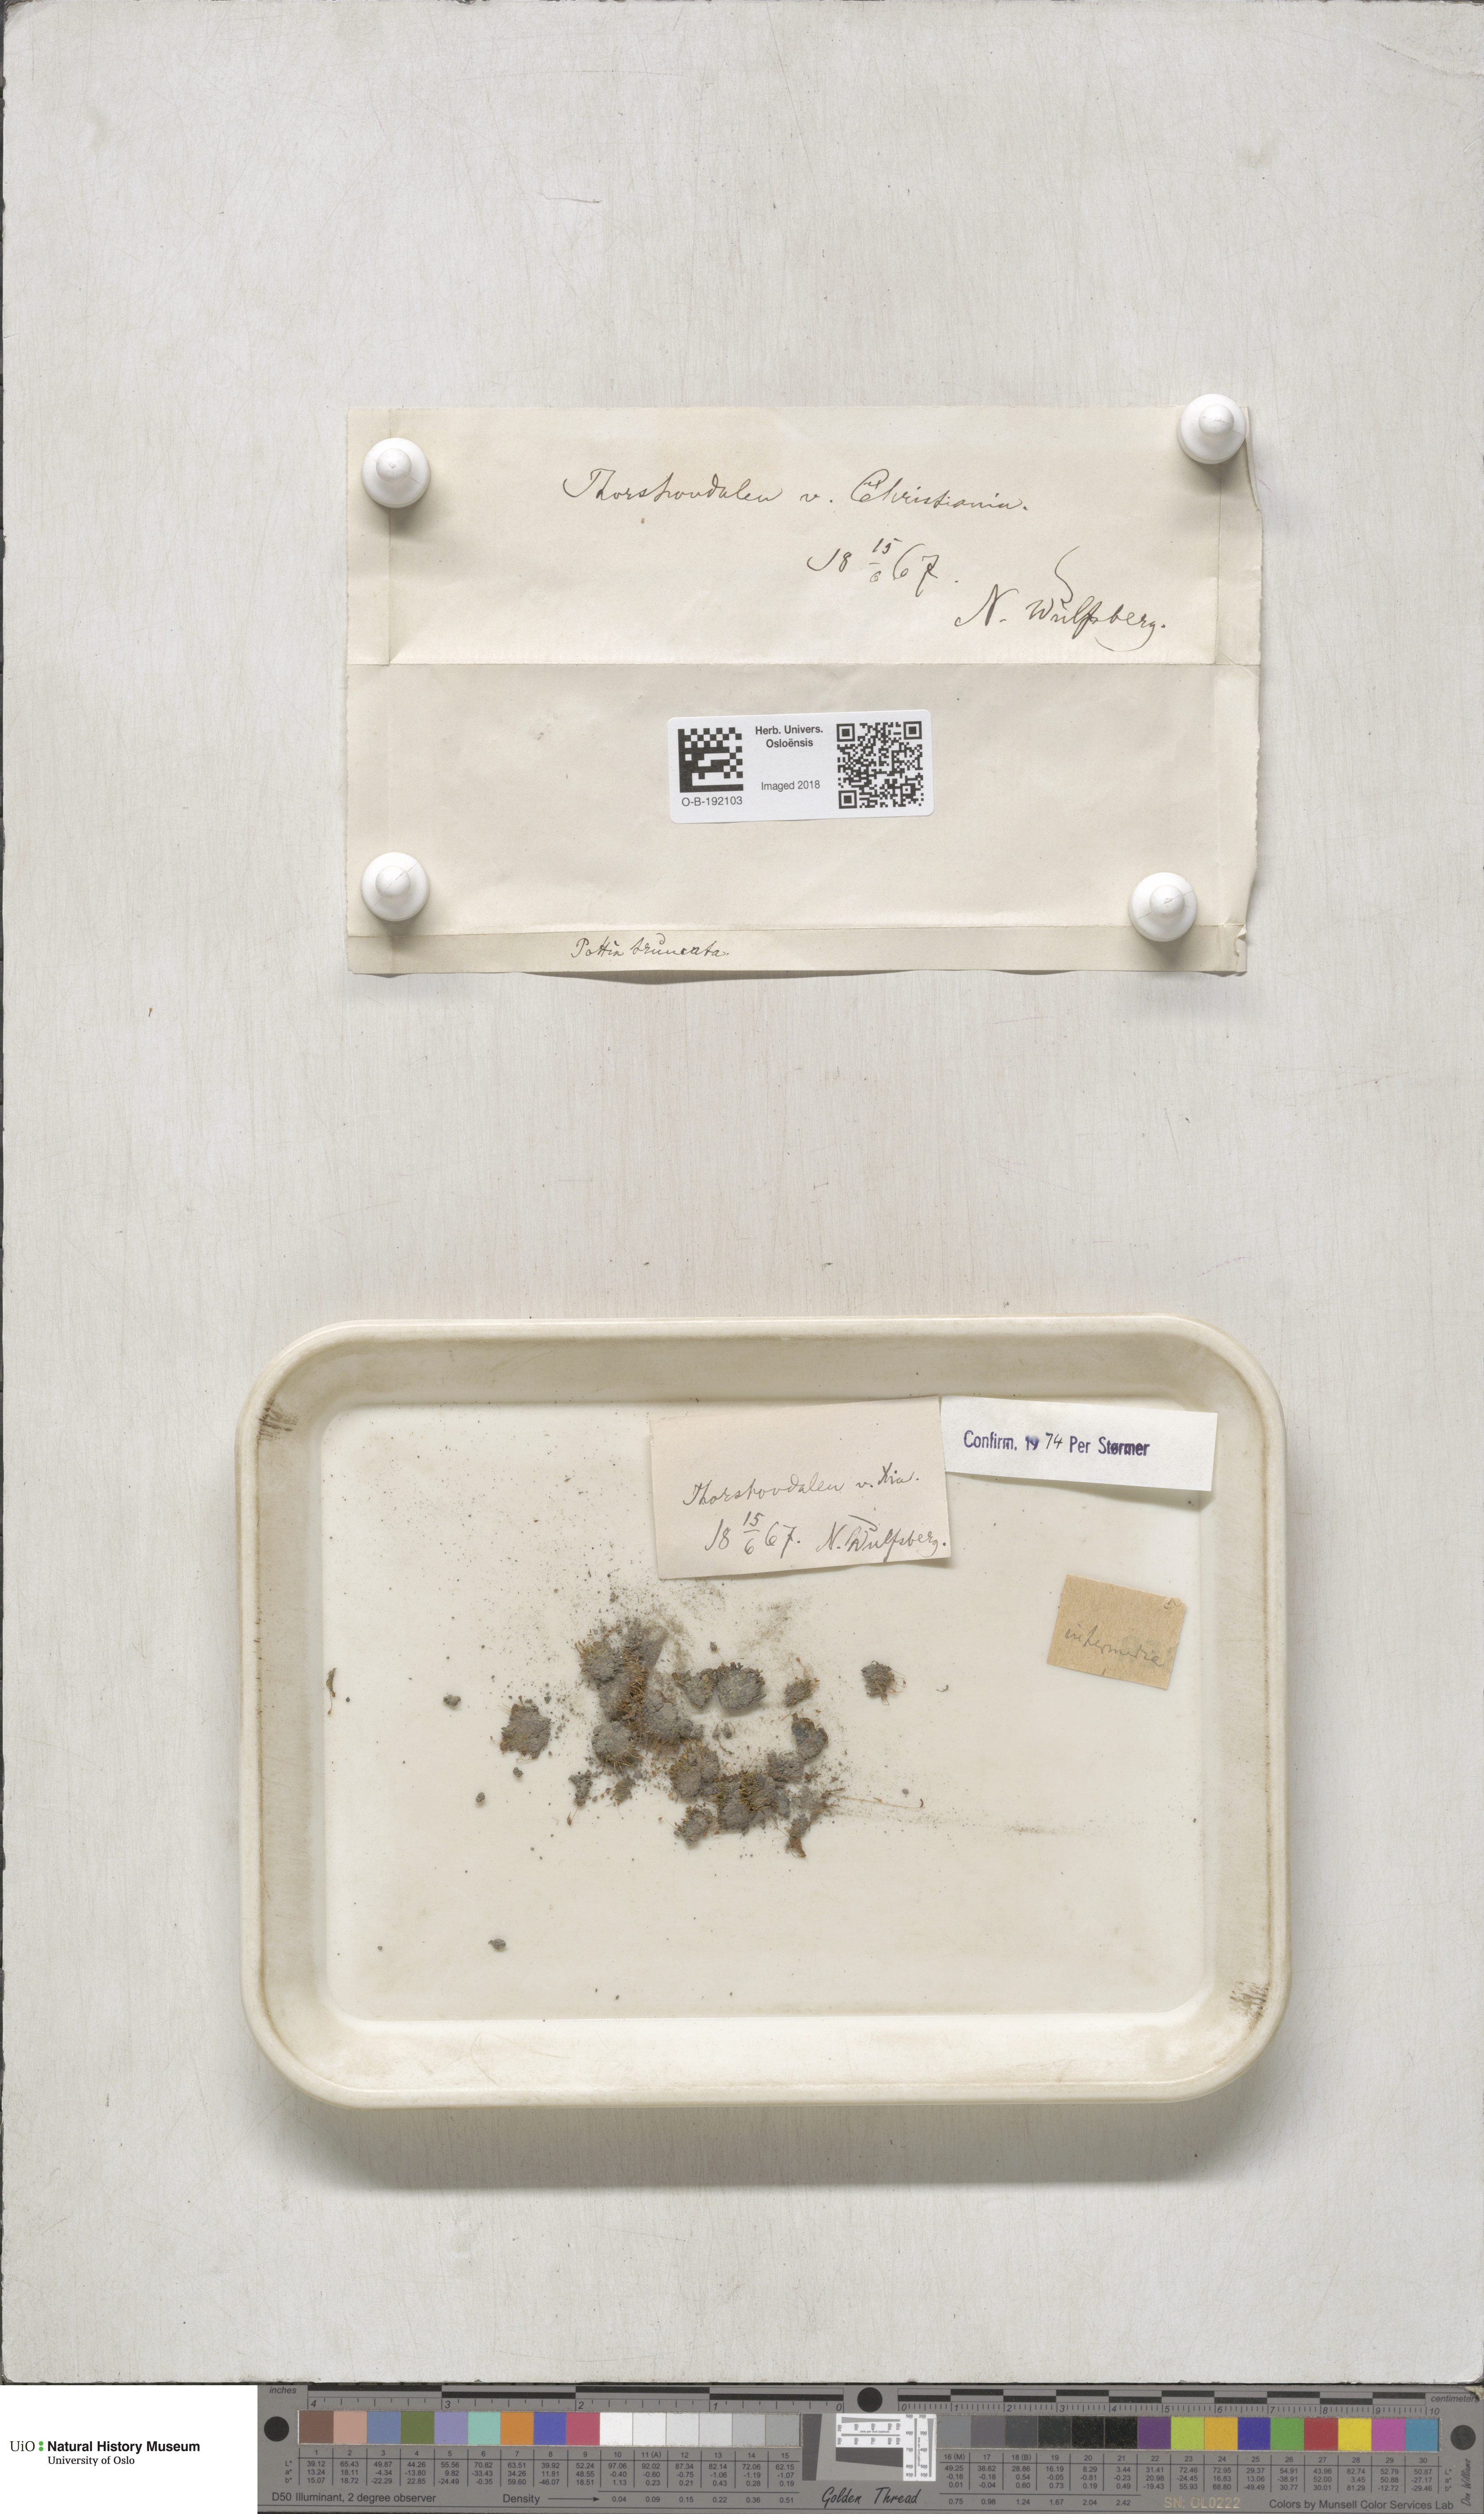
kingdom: Plantae
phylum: Bryophyta
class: Bryopsida
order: Pottiales
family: Pottiaceae
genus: Tortula
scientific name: Tortula caucasica
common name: Blunt-fruited pottia
